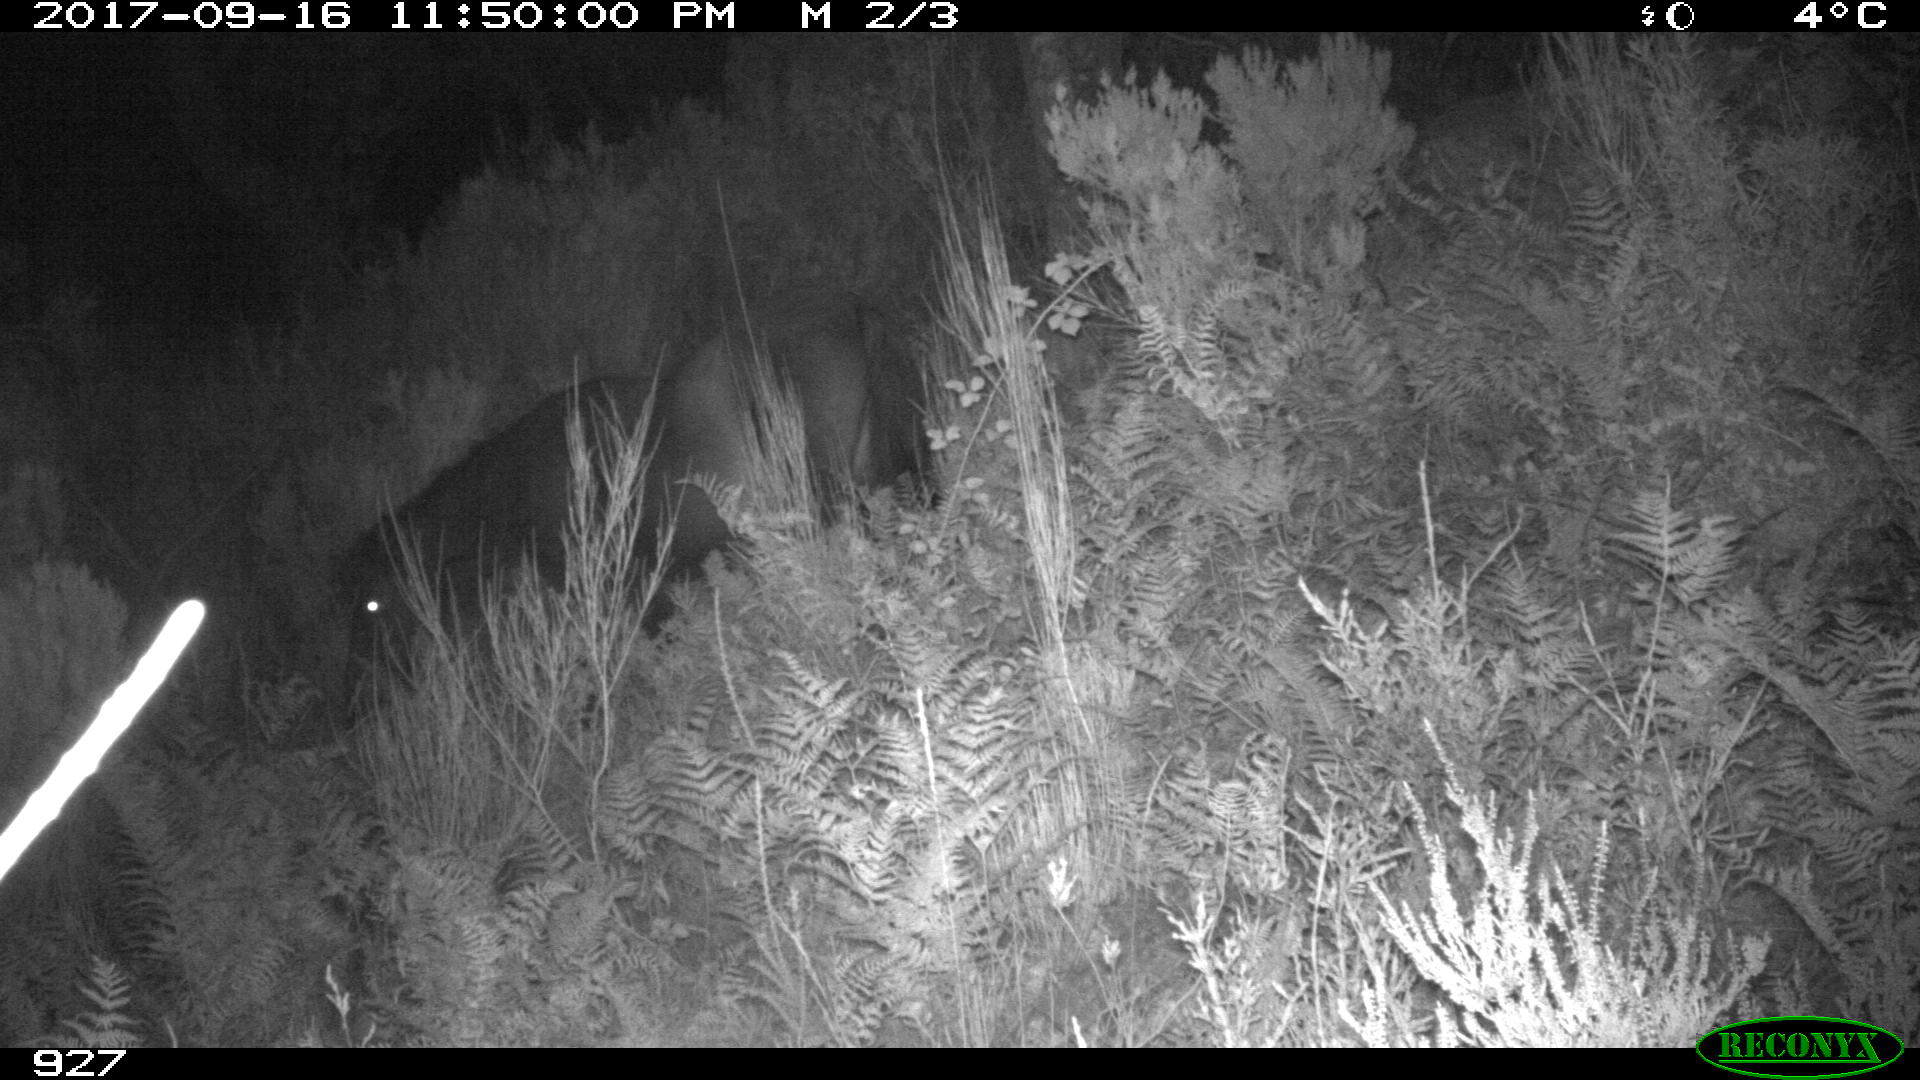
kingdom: Animalia
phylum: Chordata
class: Mammalia
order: Perissodactyla
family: Equidae
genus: Equus
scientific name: Equus caballus
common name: Horse
